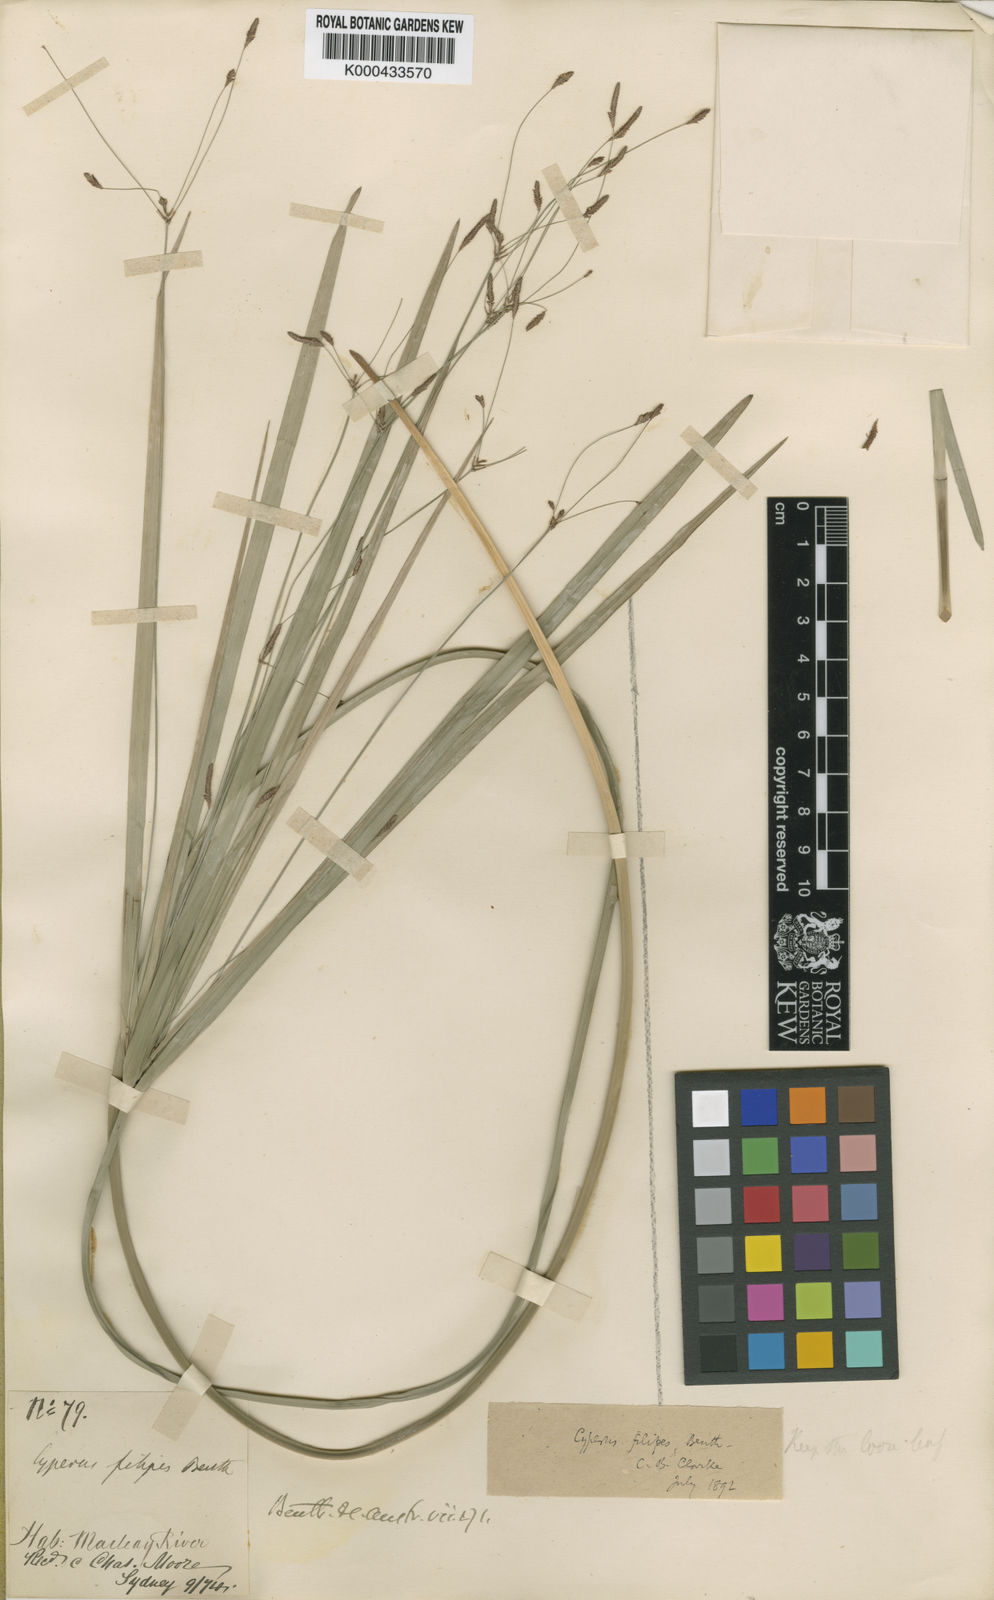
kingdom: Plantae
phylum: Tracheophyta
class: Liliopsida
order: Poales
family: Cyperaceae
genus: Cyperus
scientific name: Cyperus filipes
